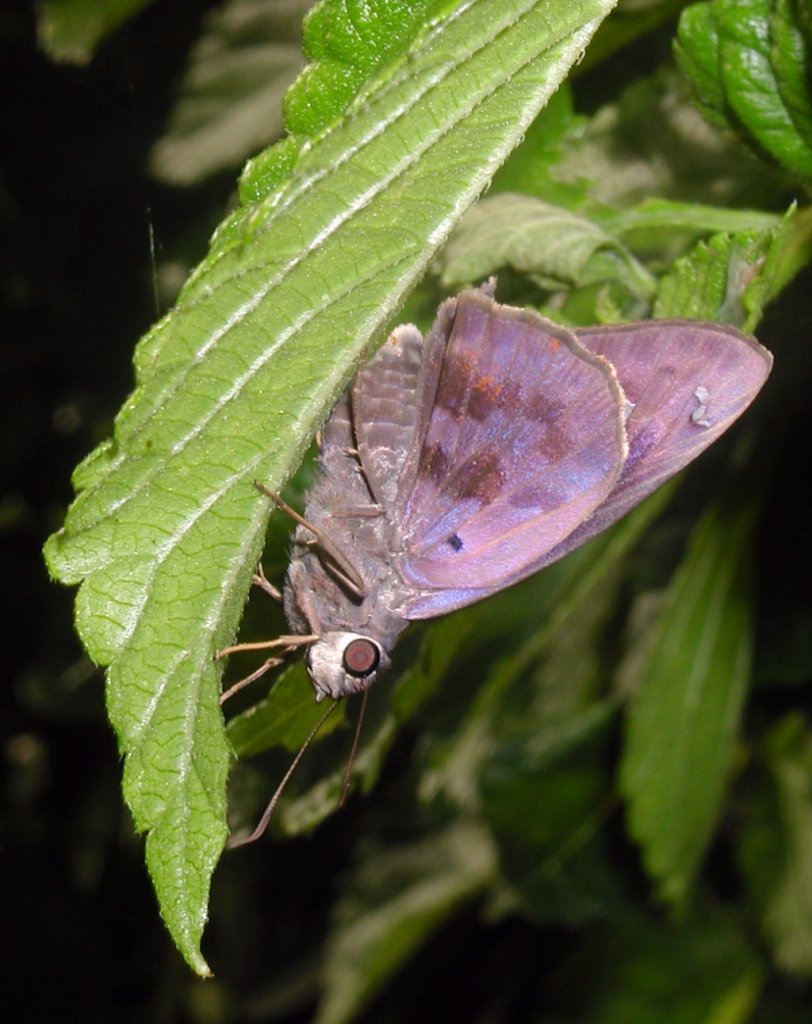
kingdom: Animalia
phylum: Arthropoda
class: Insecta
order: Lepidoptera
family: Hesperiidae
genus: Polygonus
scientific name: Polygonus leo
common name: Hammock Skipper
